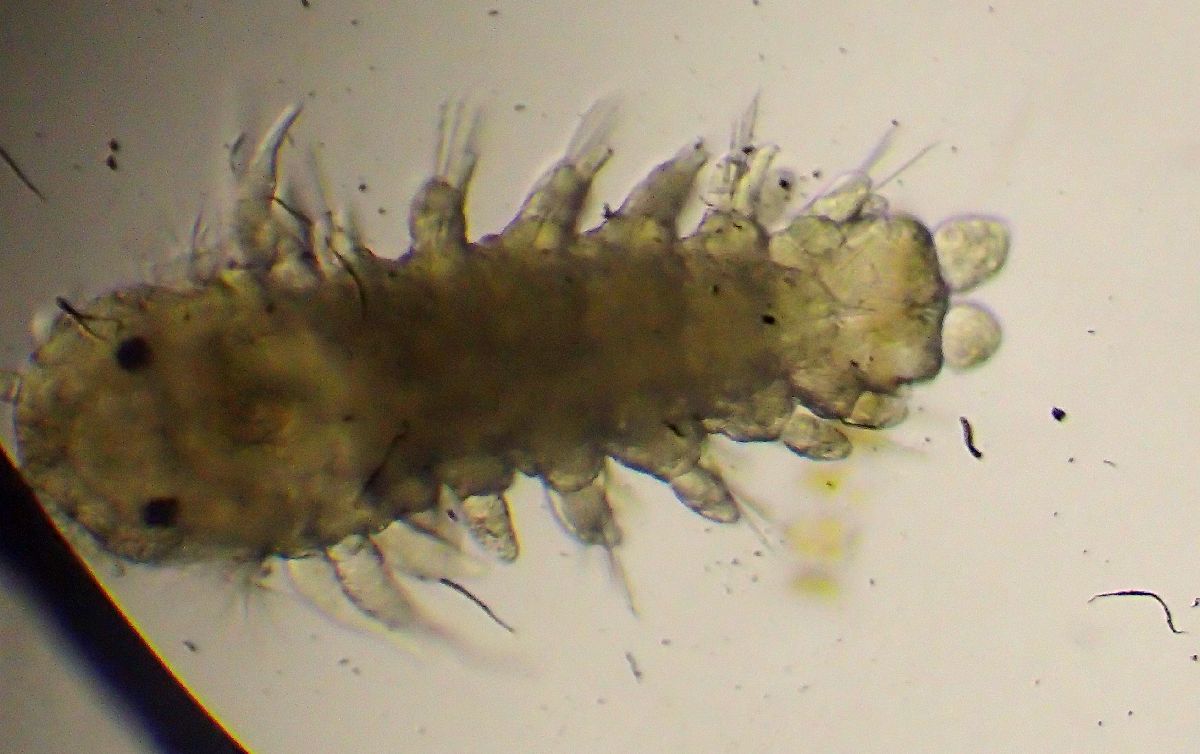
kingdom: Animalia
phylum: Annelida
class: Polychaeta
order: Phyllodocida
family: Phyllodocidae
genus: Phyllodoce
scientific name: Phyllodoce maculata
